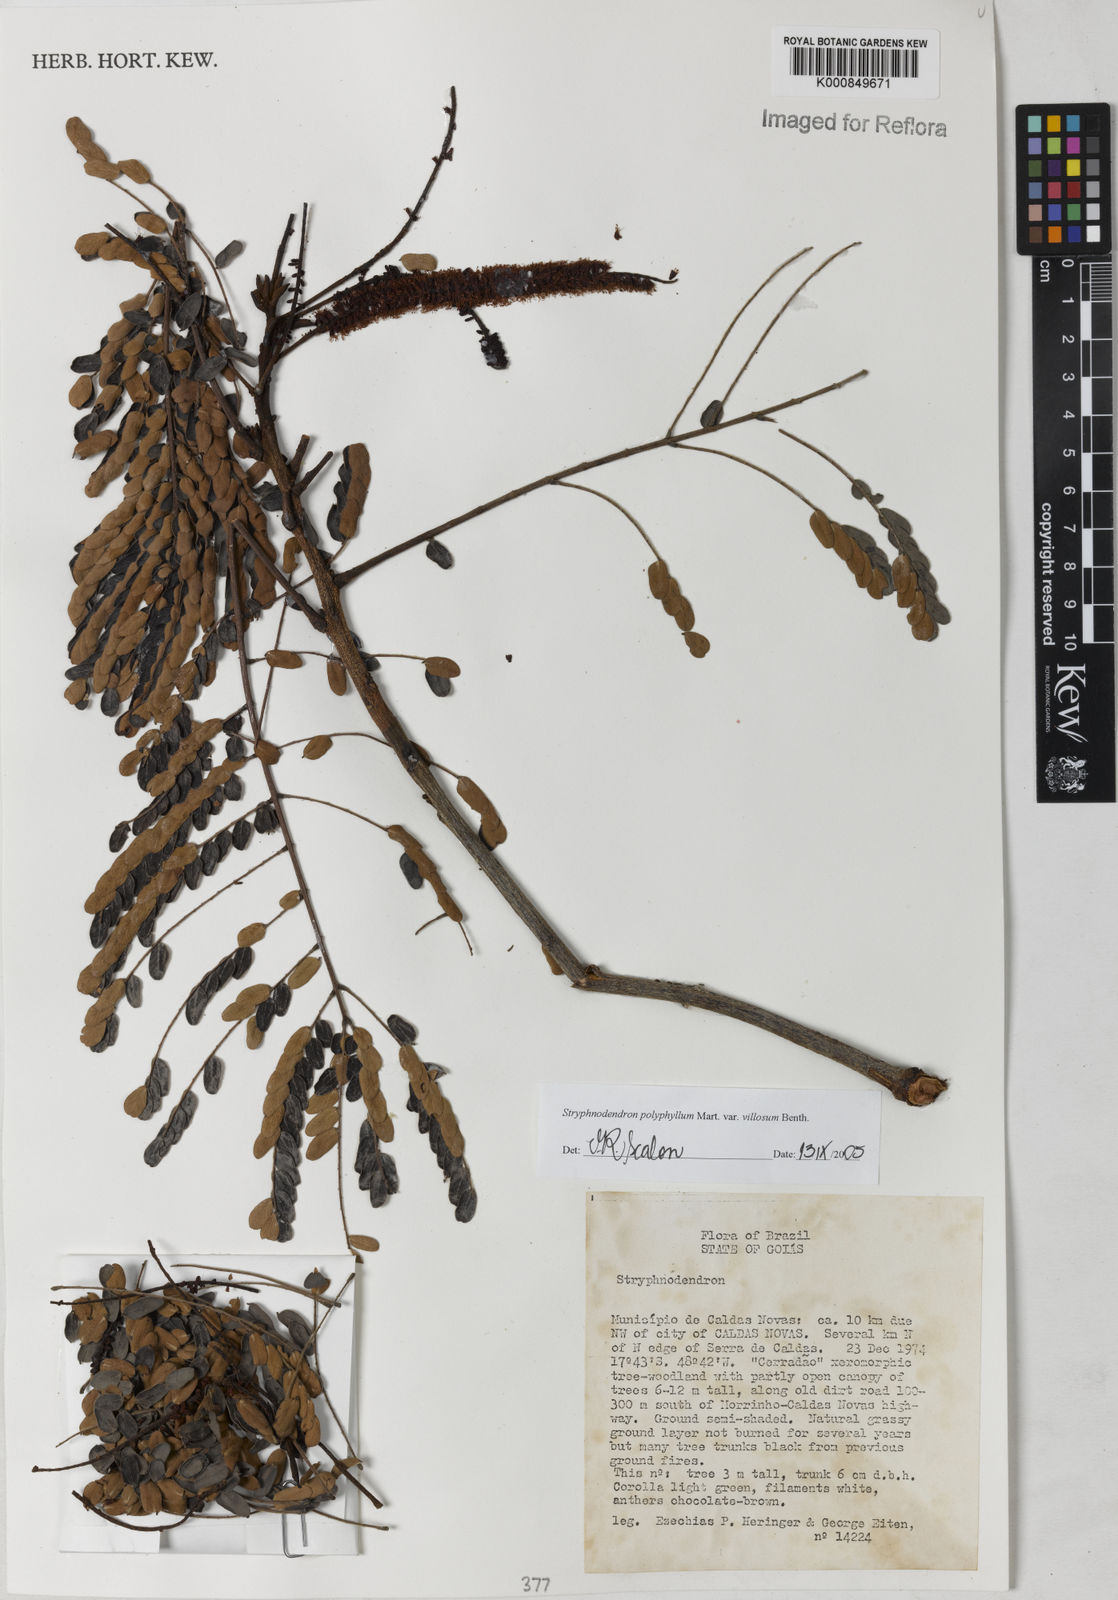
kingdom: Plantae
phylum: Tracheophyta
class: Magnoliopsida
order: Fabales
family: Fabaceae
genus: Stryphnodendron
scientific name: Stryphnodendron polyphyllum
